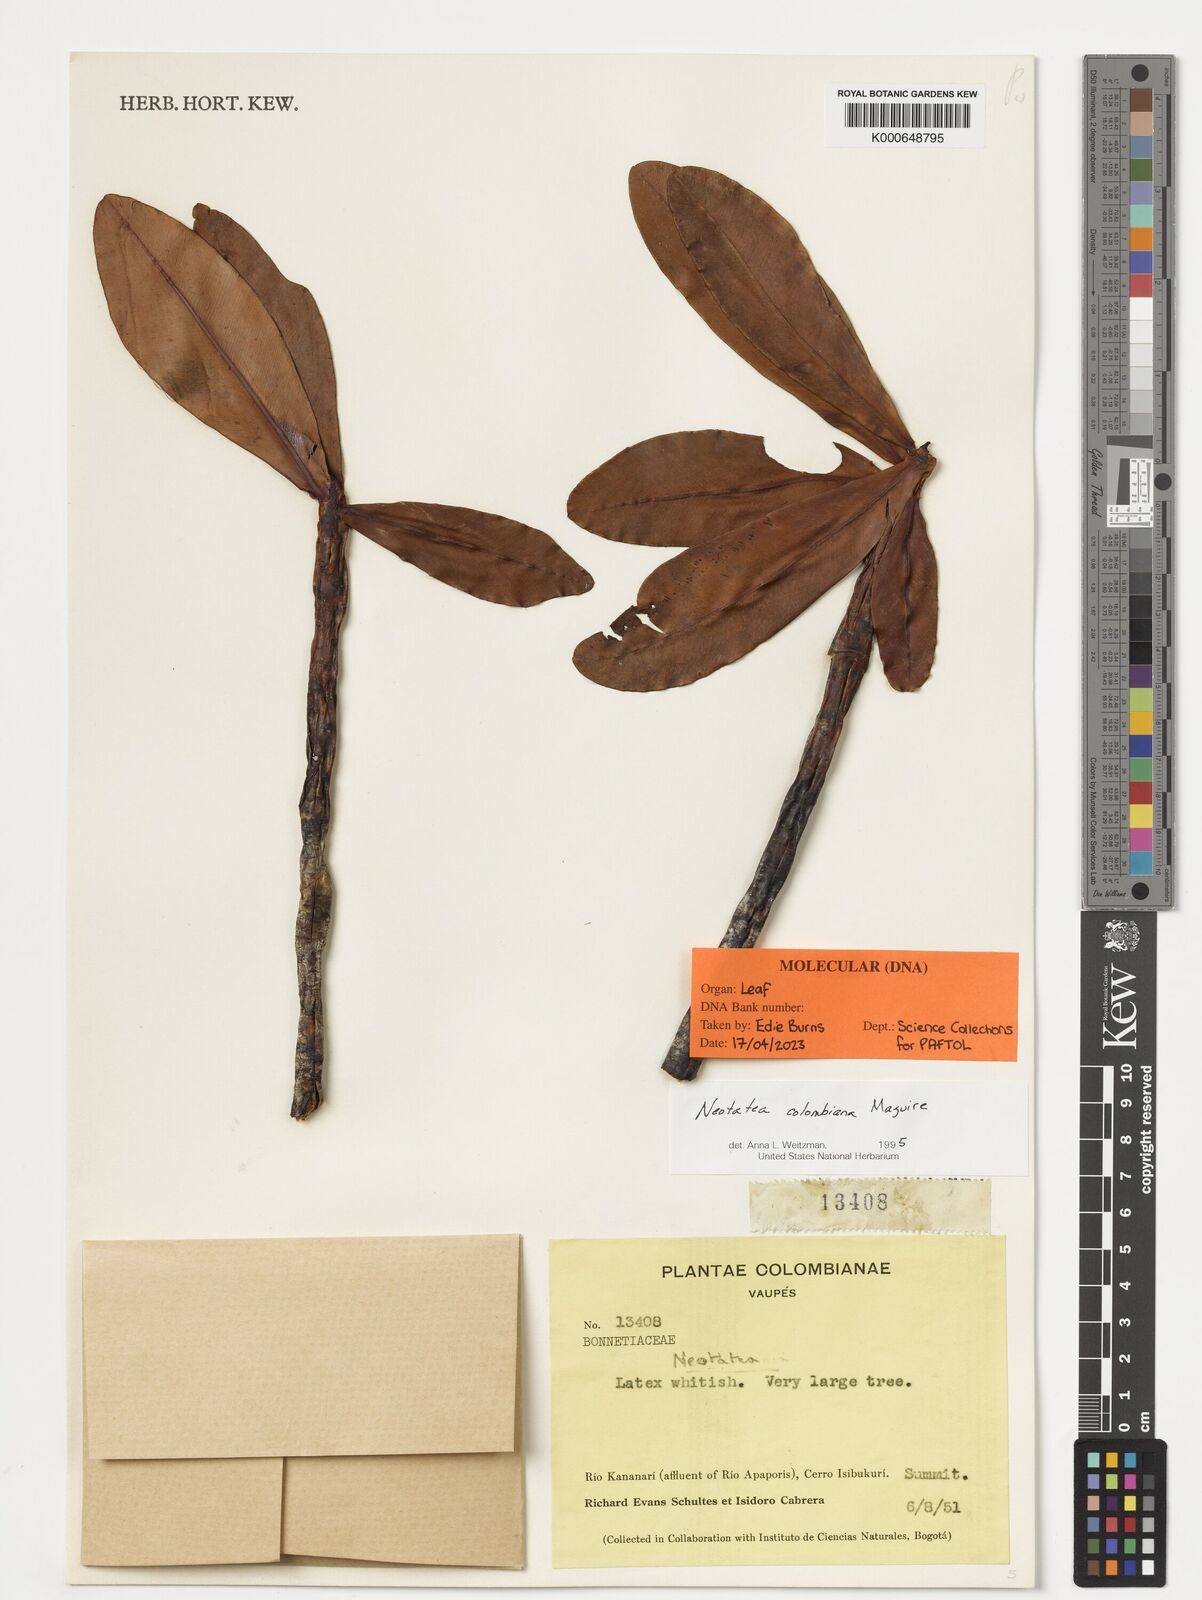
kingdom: Plantae
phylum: Tracheophyta
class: Magnoliopsida
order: Malpighiales
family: Calophyllaceae
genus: Neotatea
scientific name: Neotatea colombiana
